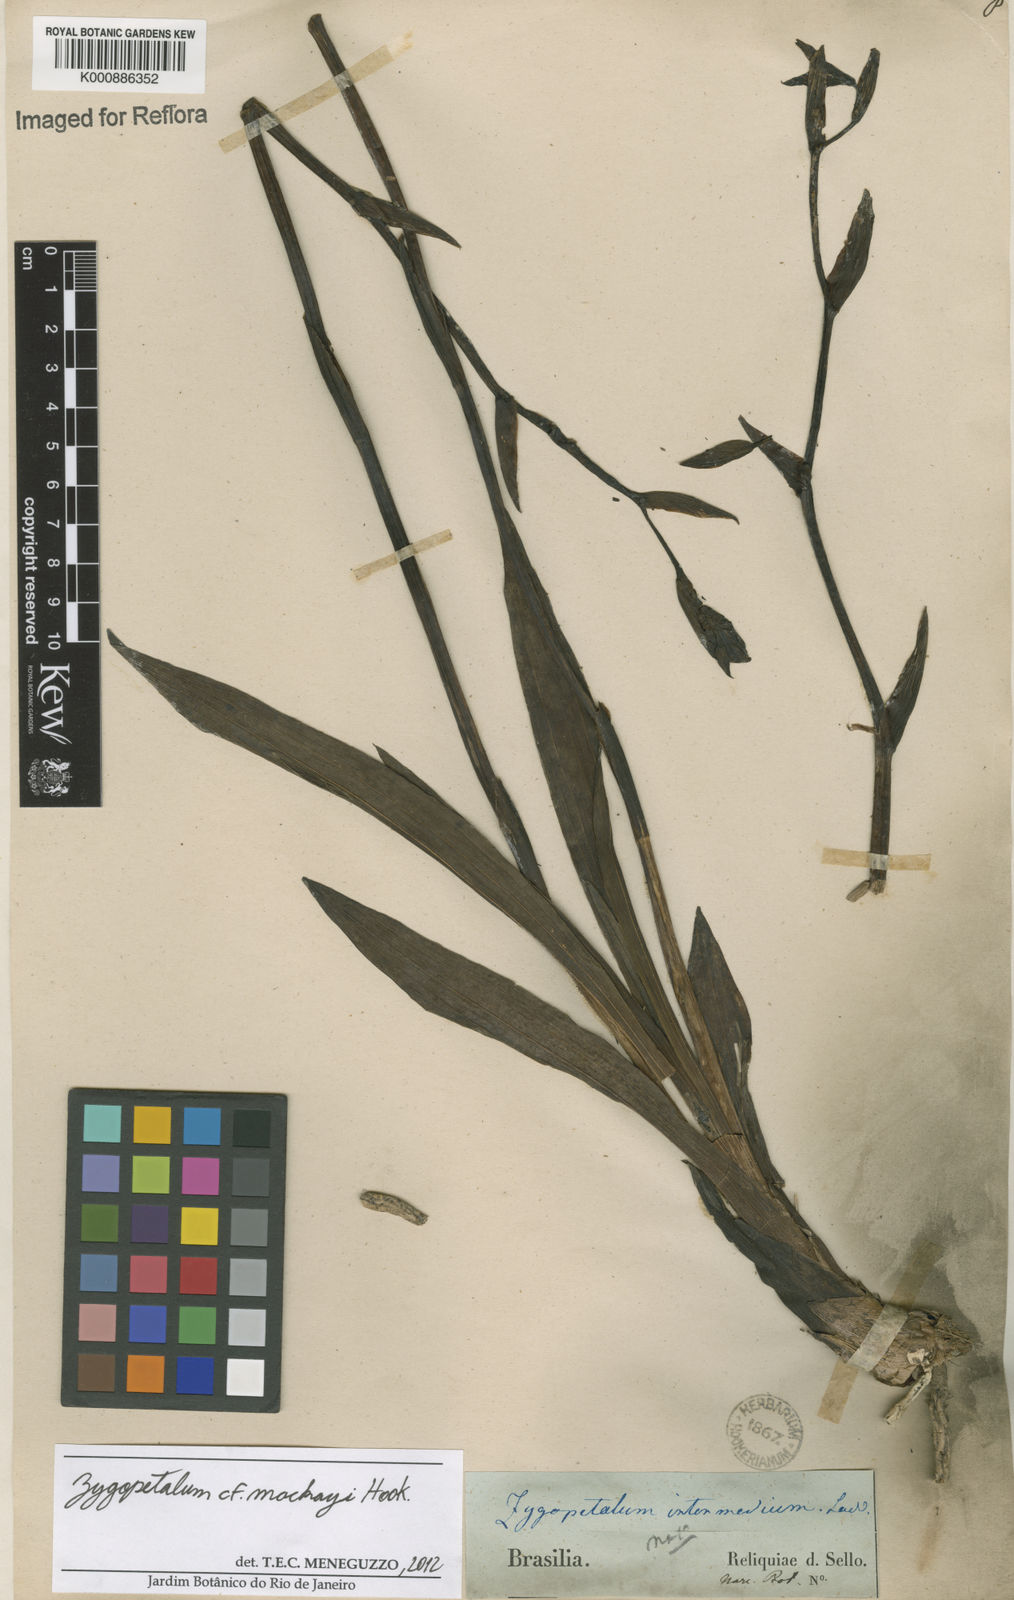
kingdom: Plantae
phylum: Tracheophyta
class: Liliopsida
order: Asparagales
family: Orchidaceae
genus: Zygopetalum
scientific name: Zygopetalum maculatum
